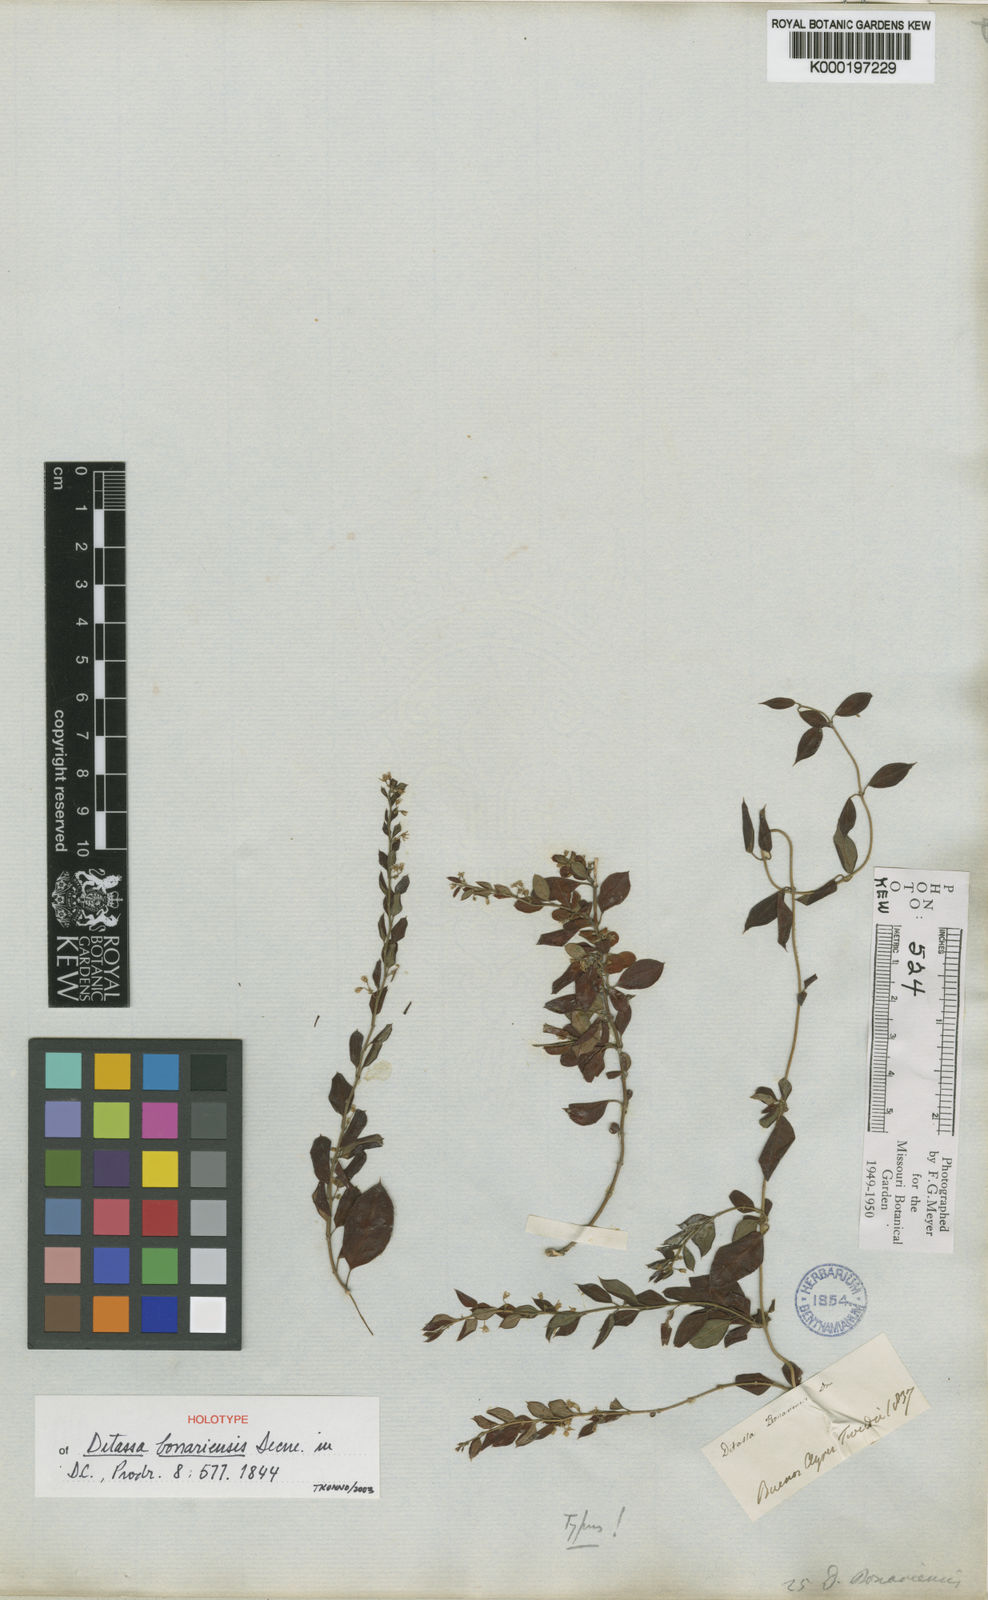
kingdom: Plantae
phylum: Tracheophyta
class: Magnoliopsida
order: Gentianales
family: Apocynaceae
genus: Metastelma
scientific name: Metastelma burchellii
